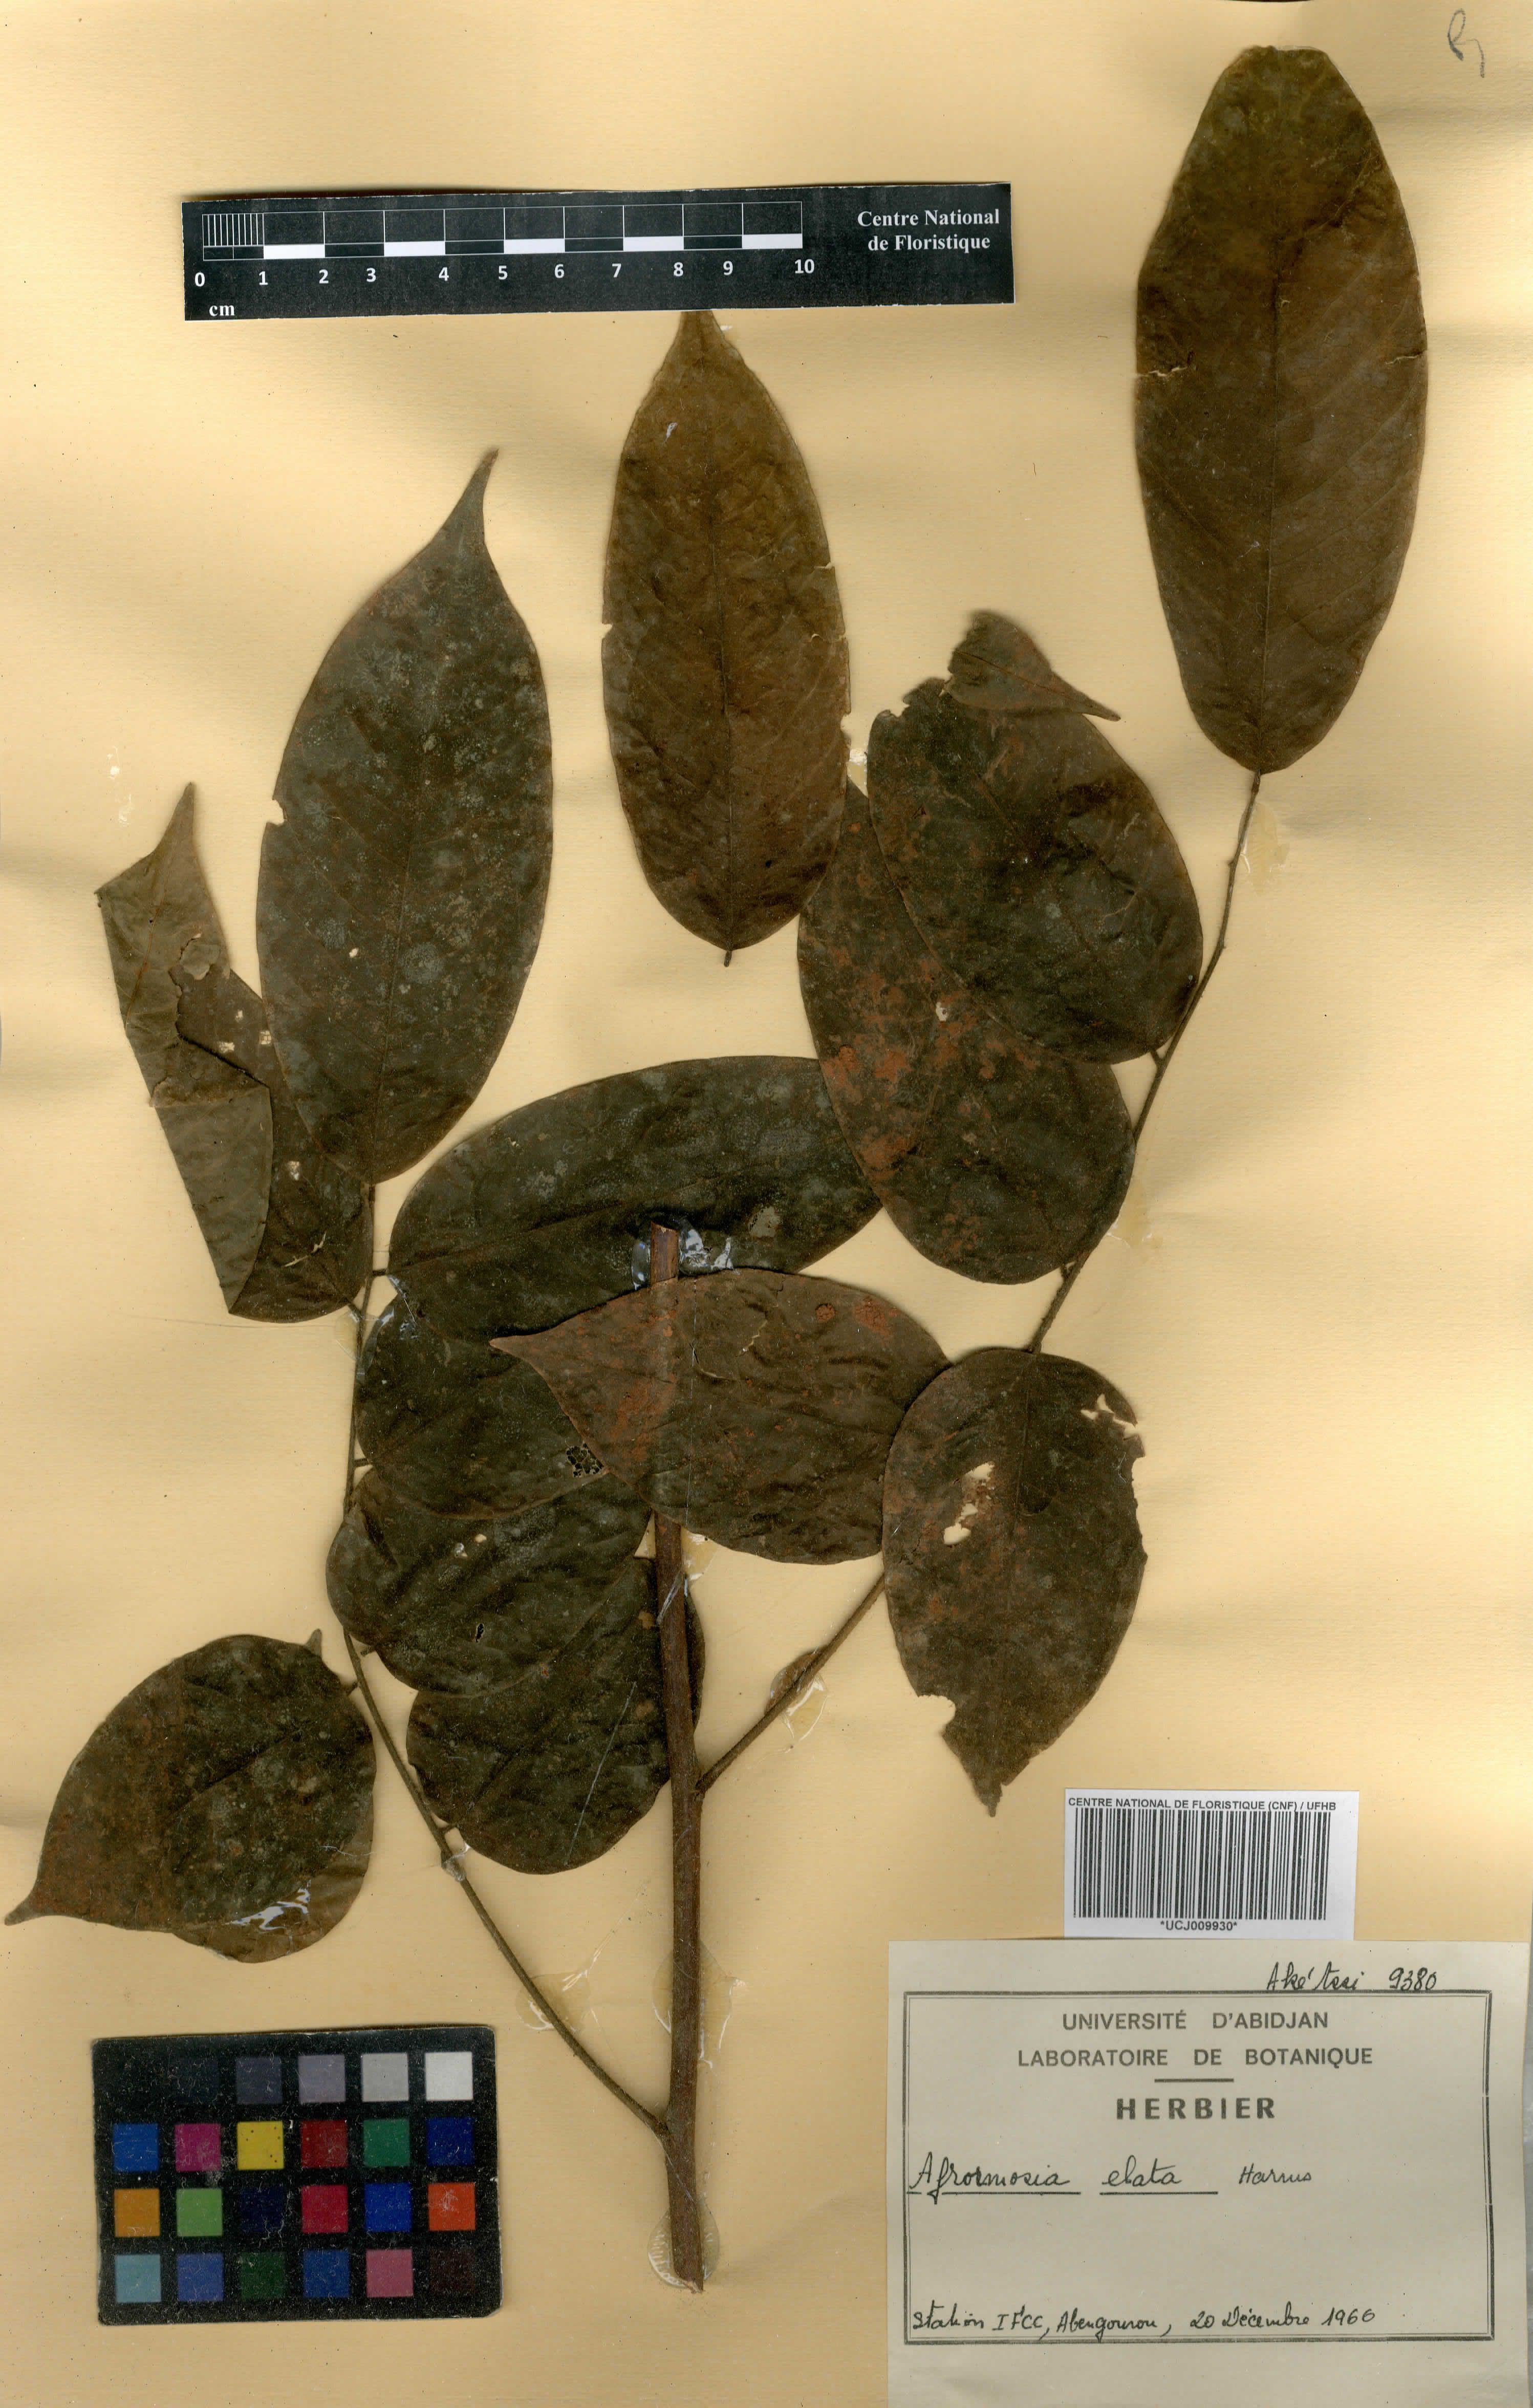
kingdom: Plantae
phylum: Tracheophyta
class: Magnoliopsida
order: Fabales
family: Fabaceae
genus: Pericopsis
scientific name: Pericopsis elata
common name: African teak
